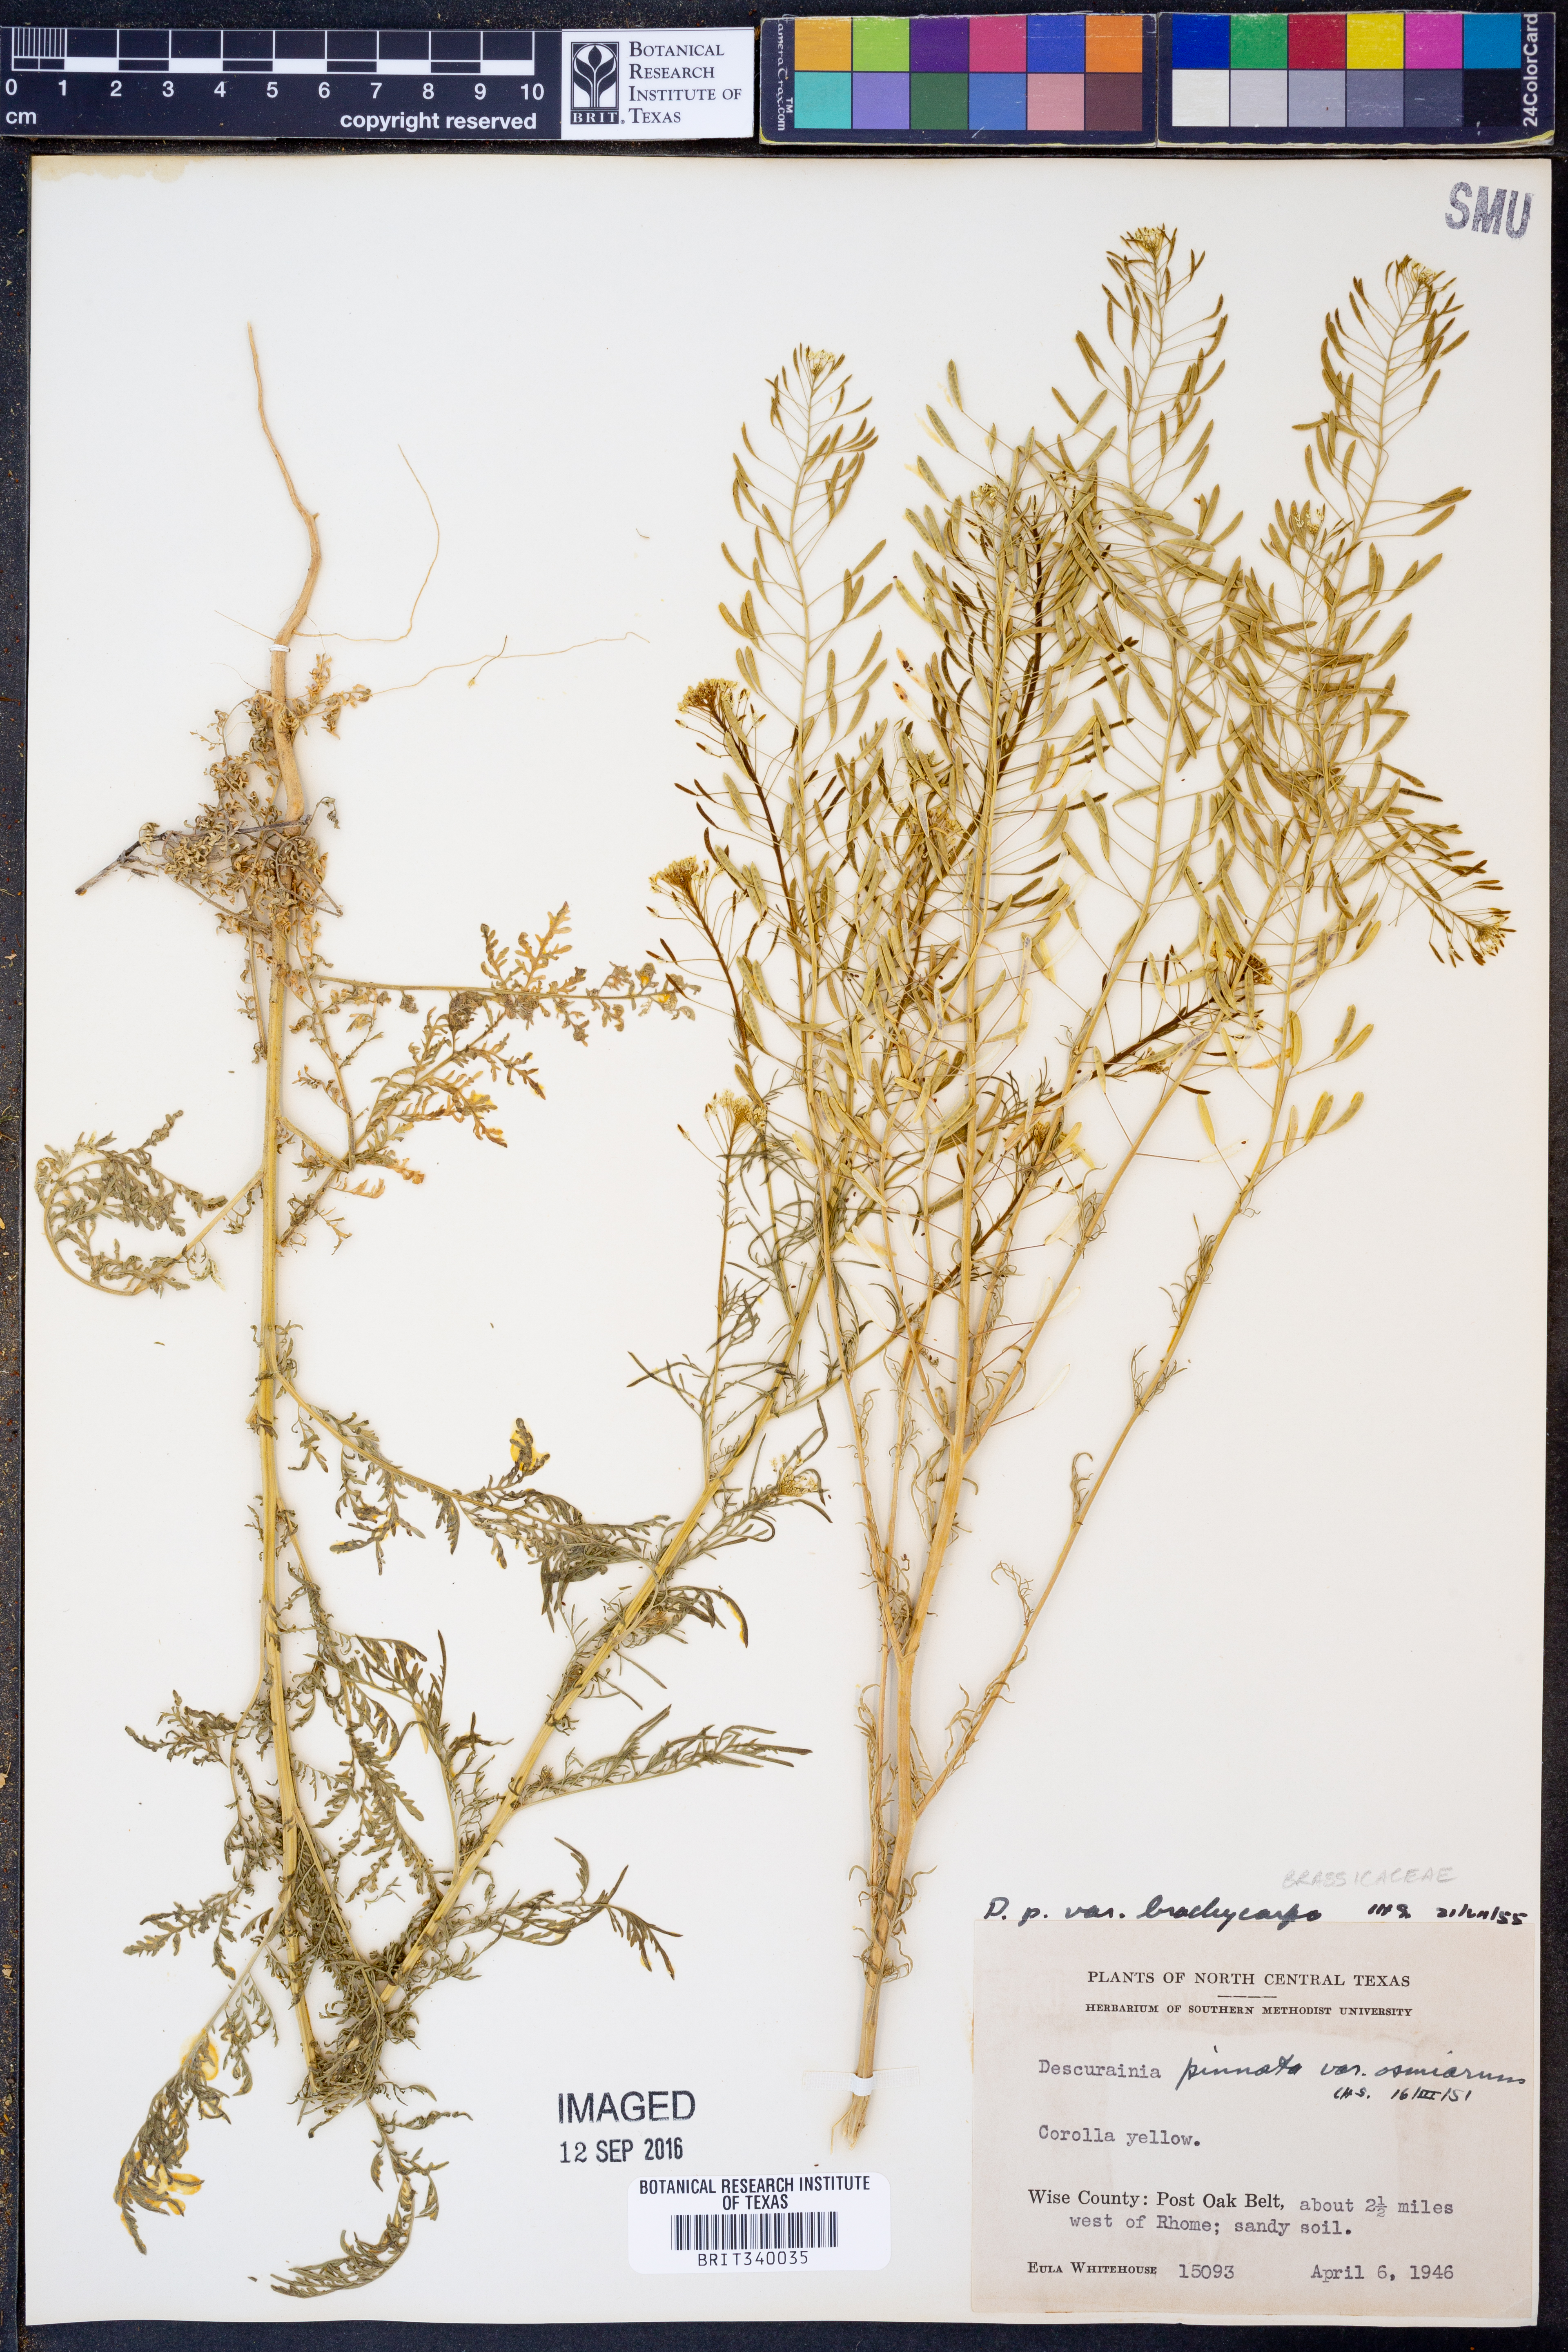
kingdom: Plantae
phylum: Tracheophyta
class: Magnoliopsida
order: Brassicales
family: Brassicaceae
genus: Descurainia
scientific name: Descurainia pinnata
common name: Western tansy mustard
